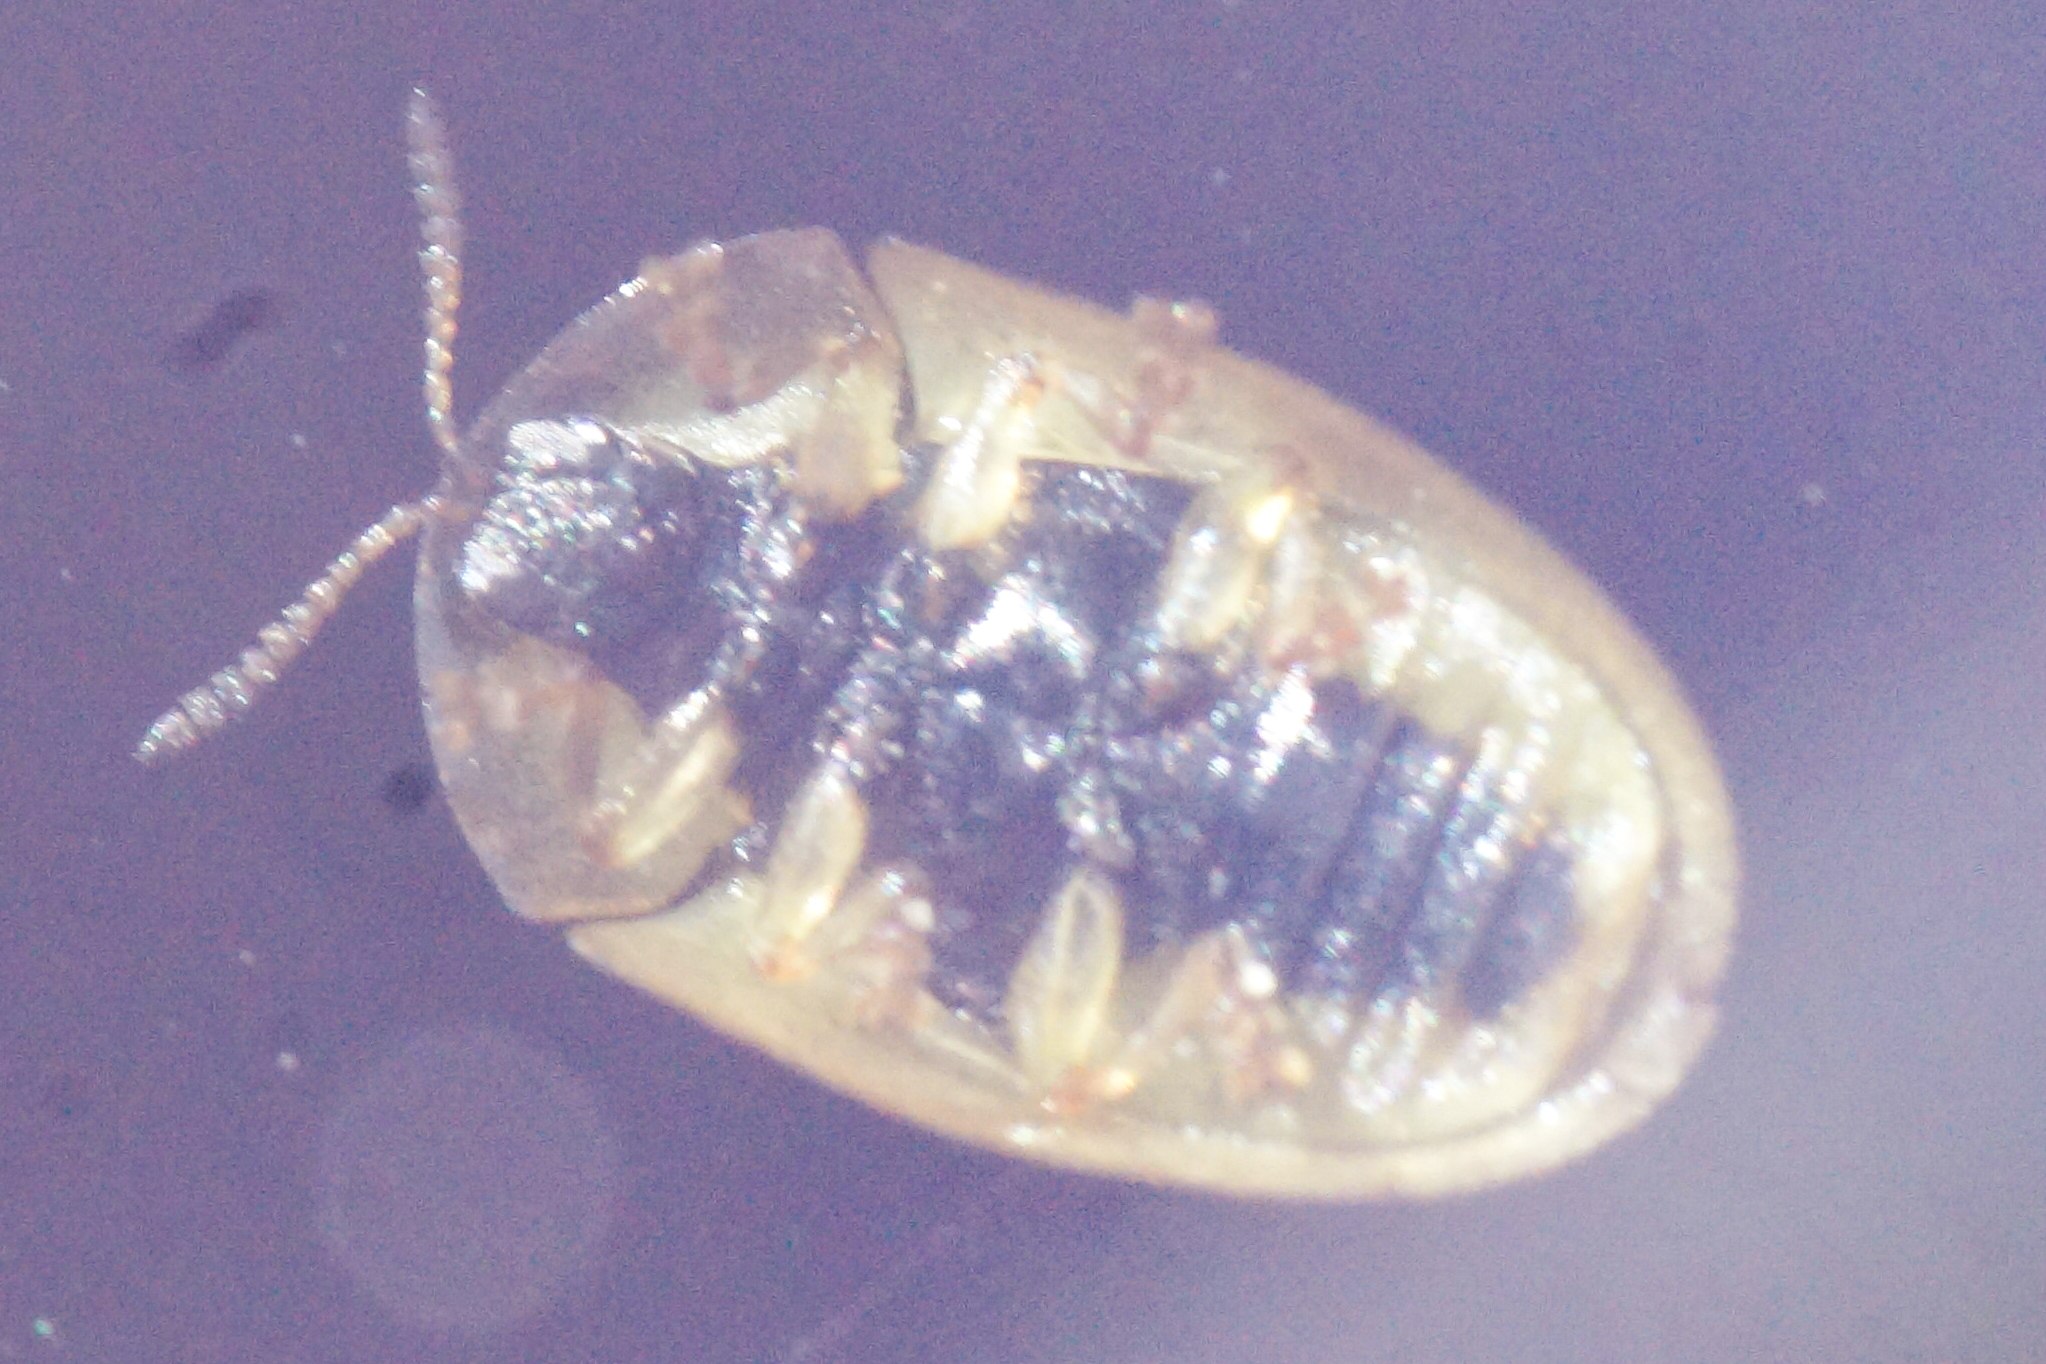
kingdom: Animalia
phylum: Arthropoda
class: Insecta
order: Coleoptera
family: Chrysomelidae
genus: Cassida
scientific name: Cassida vittata
